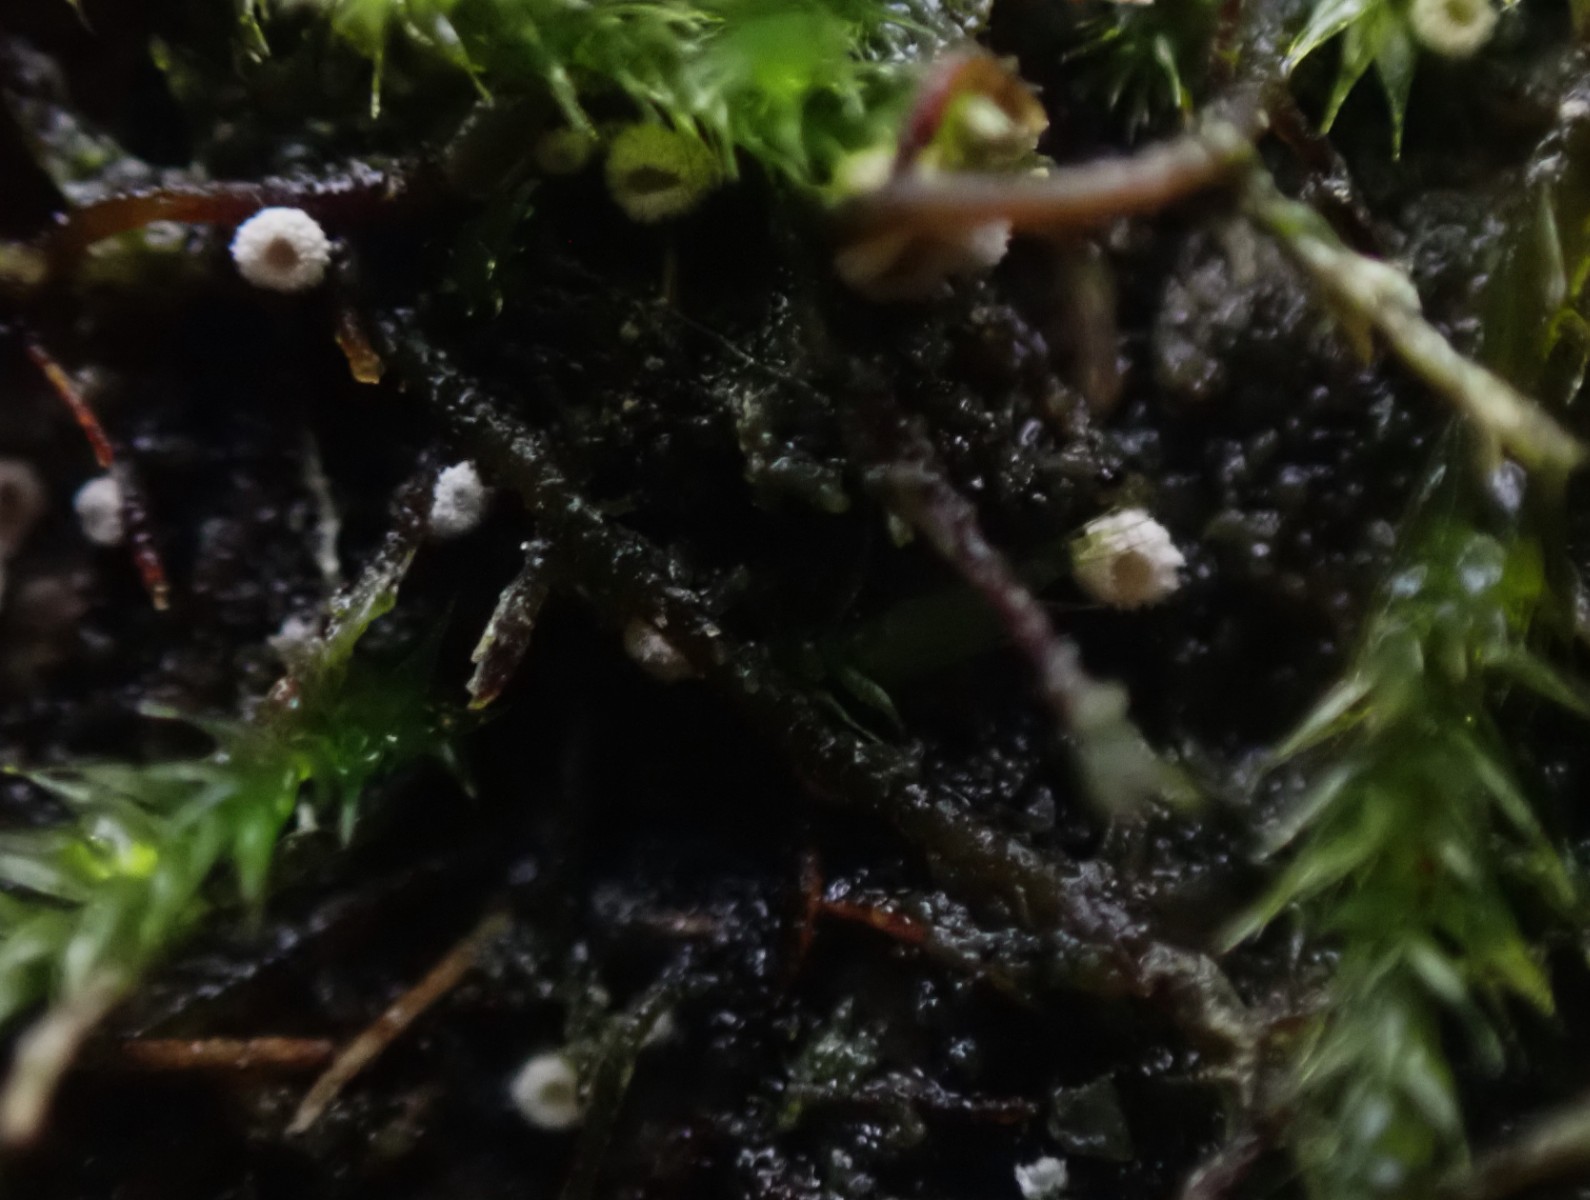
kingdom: Fungi
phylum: Basidiomycota
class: Agaricomycetes
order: Agaricales
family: Chromocyphellaceae
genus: Chromocyphella
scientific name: Chromocyphella muscicola
